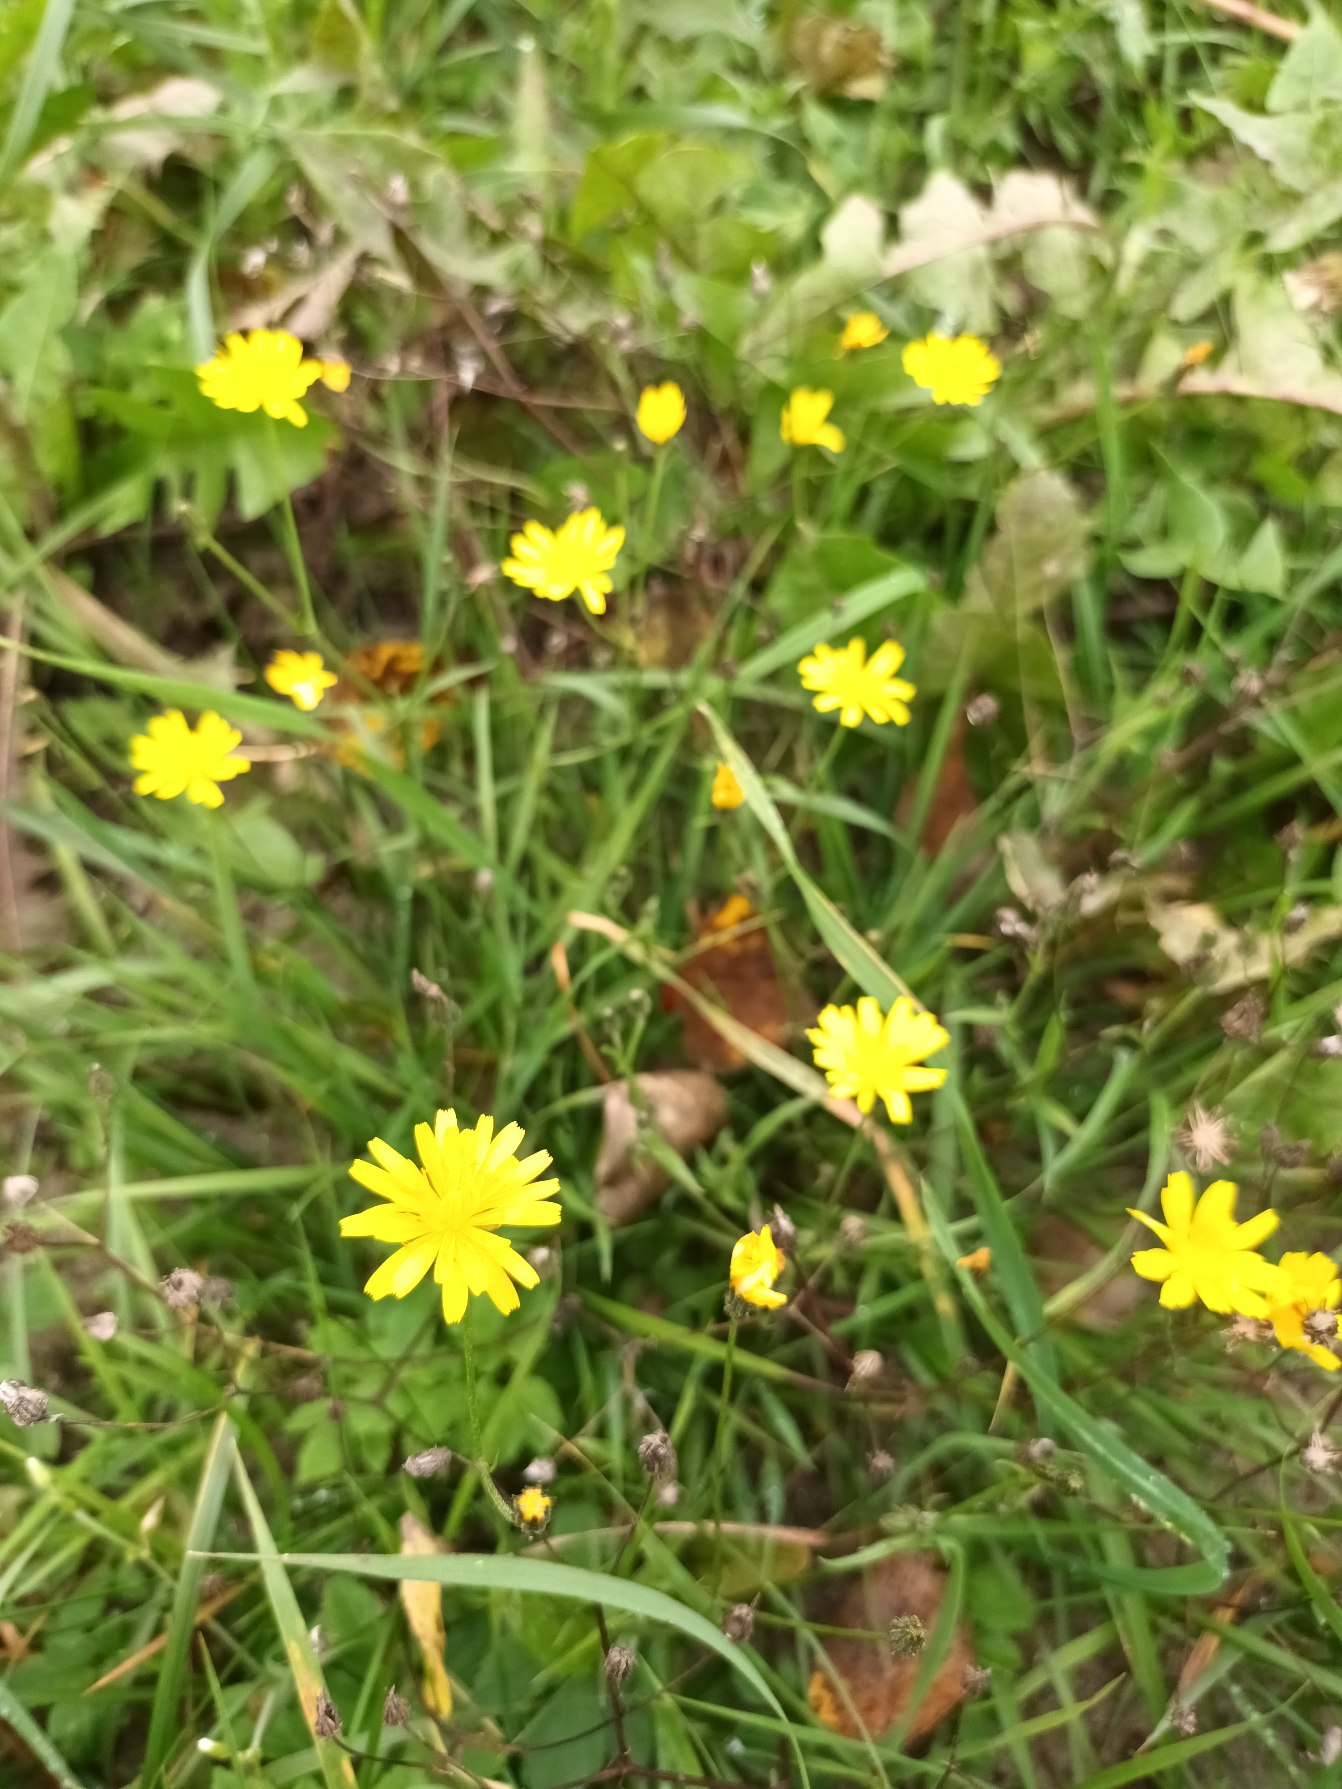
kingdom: Plantae
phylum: Tracheophyta
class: Magnoliopsida
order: Asterales
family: Asteraceae
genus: Crepis
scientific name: Crepis capillaris
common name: Grøn høgeskæg
